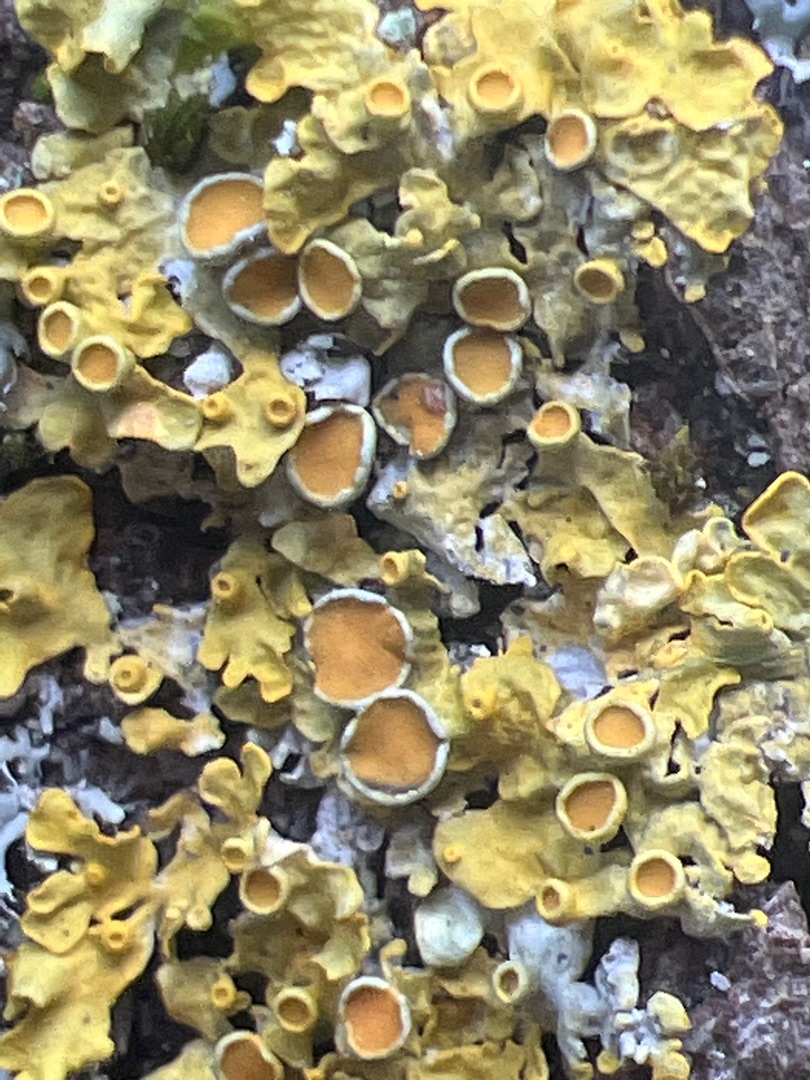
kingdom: Fungi
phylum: Ascomycota
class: Lecanoromycetes
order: Teloschistales
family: Teloschistaceae
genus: Xanthoria
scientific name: Xanthoria parietina
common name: Almindelig væggelav
